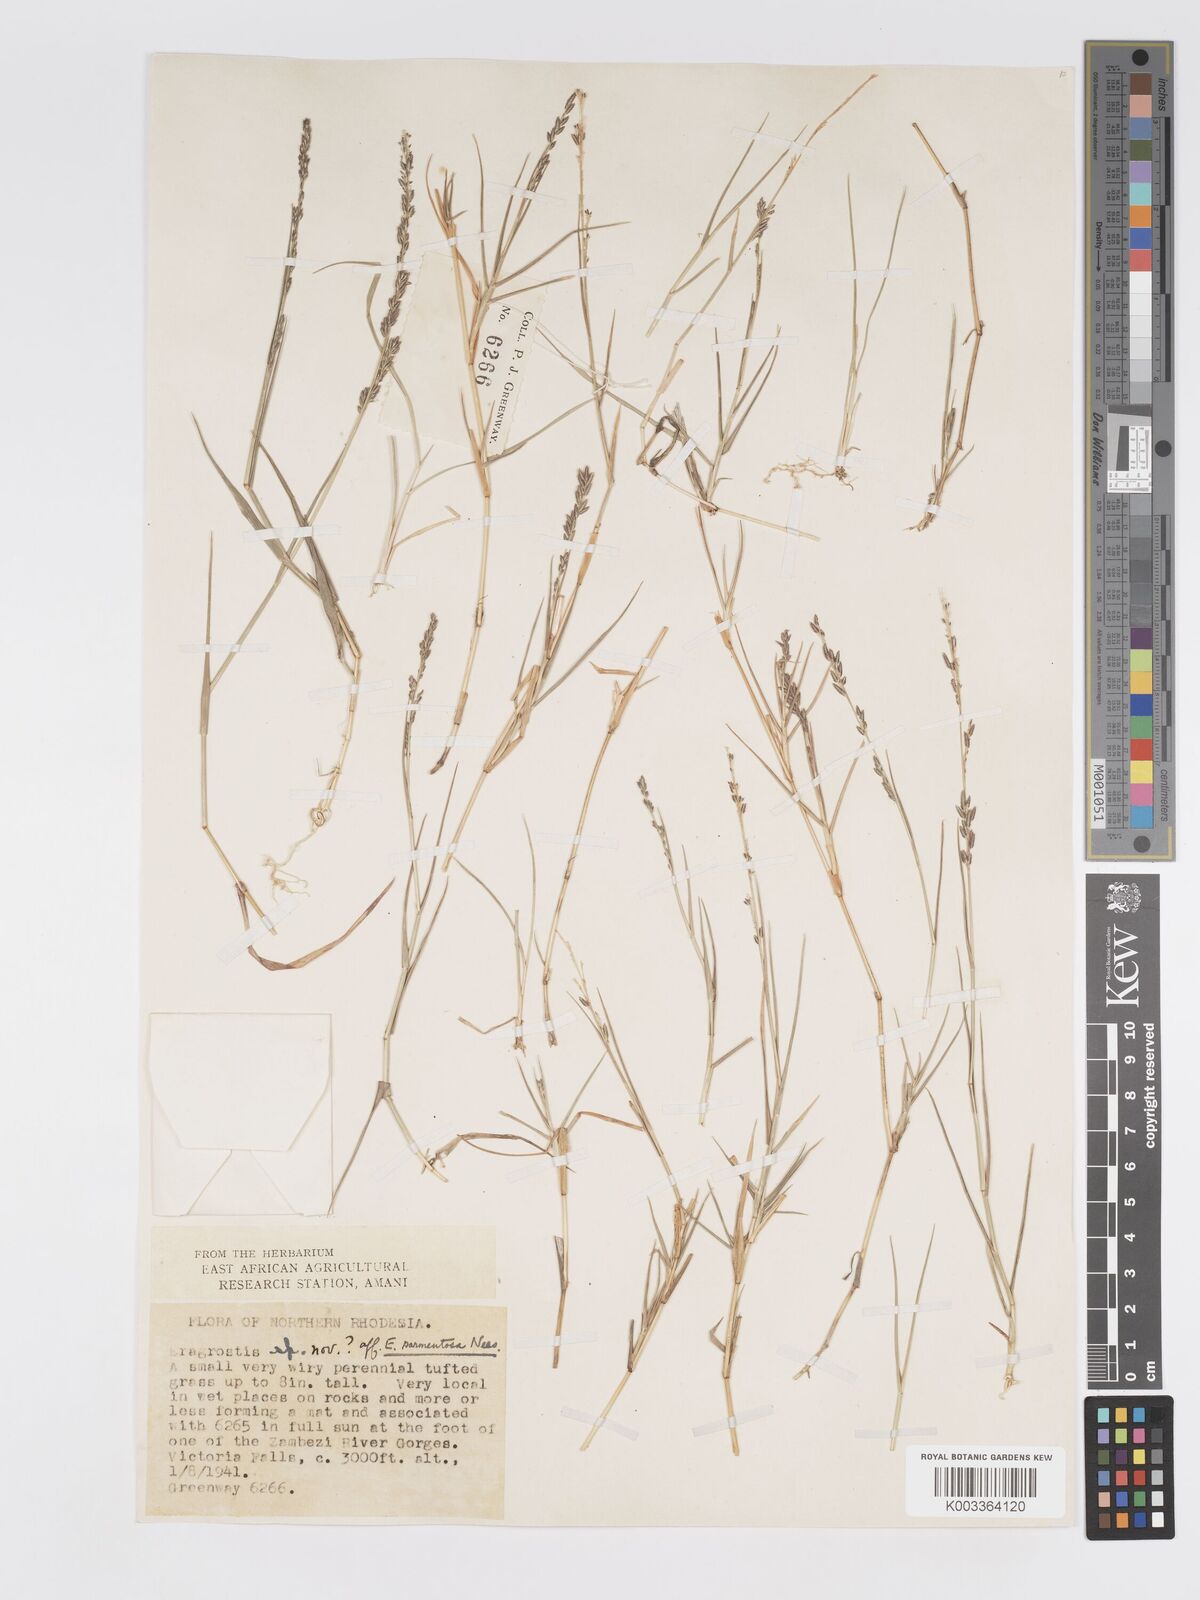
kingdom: Plantae
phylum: Tracheophyta
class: Liliopsida
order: Poales
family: Poaceae
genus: Eragrostis
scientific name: Eragrostis sarmentosa
